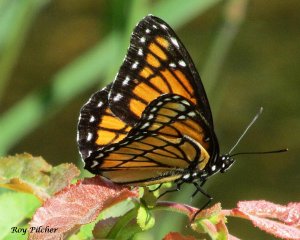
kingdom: Animalia
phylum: Arthropoda
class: Insecta
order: Lepidoptera
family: Nymphalidae
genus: Limenitis
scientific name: Limenitis archippus
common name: Viceroy
